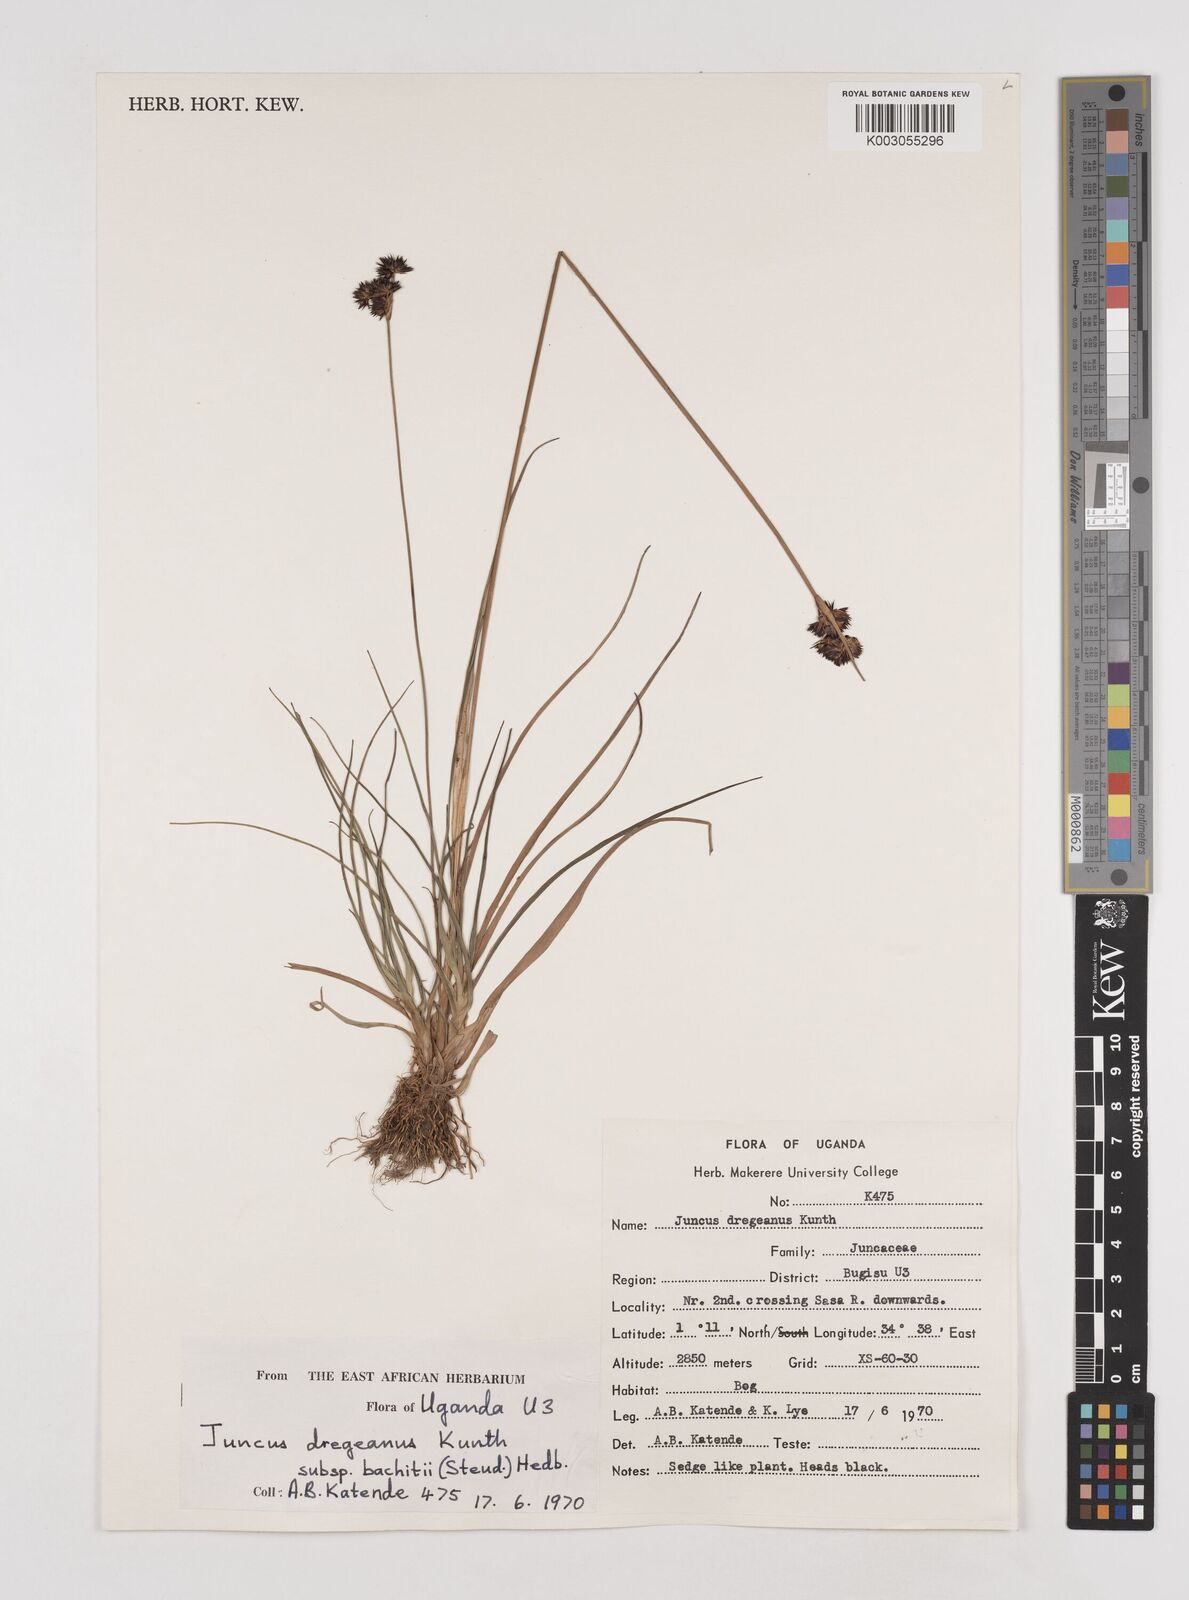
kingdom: Plantae
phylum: Tracheophyta
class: Liliopsida
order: Poales
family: Juncaceae
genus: Juncus
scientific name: Juncus dregeanus
